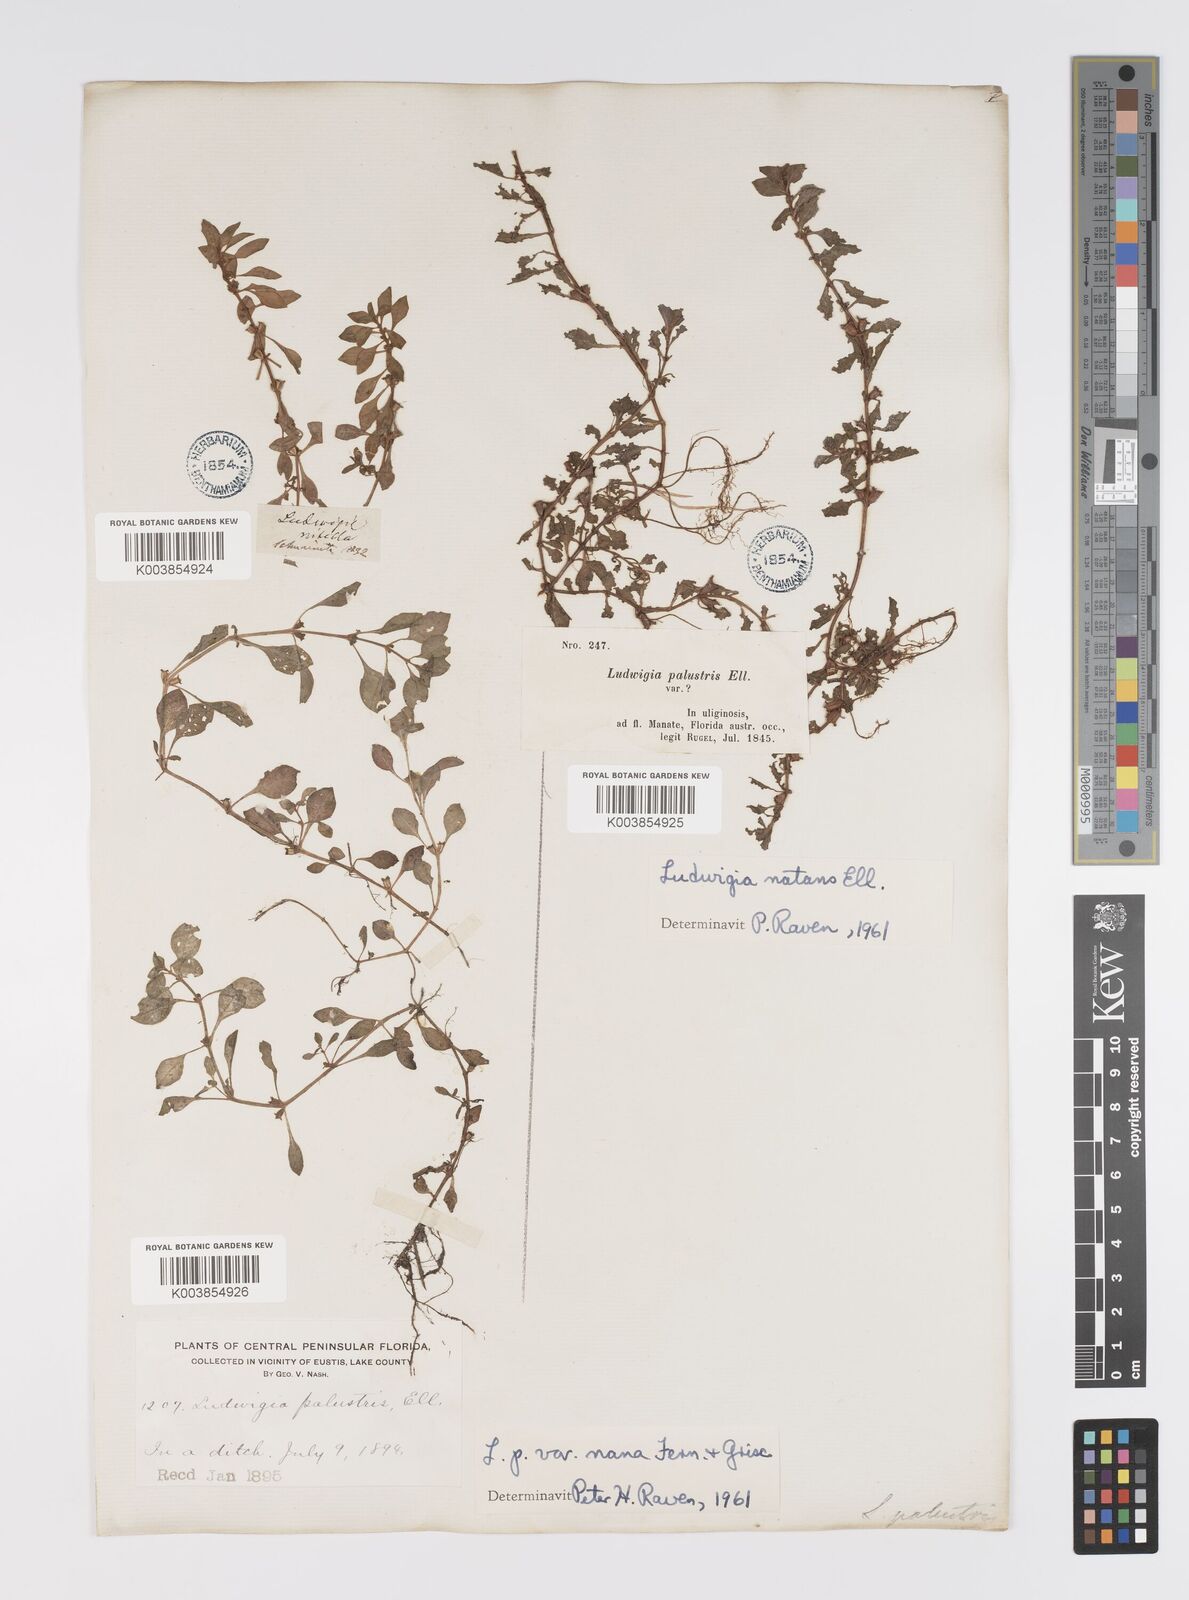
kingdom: Plantae
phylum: Tracheophyta
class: Magnoliopsida
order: Myrtales
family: Onagraceae
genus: Ludwigia
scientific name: Ludwigia palustris
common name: Hampshire-purslane
